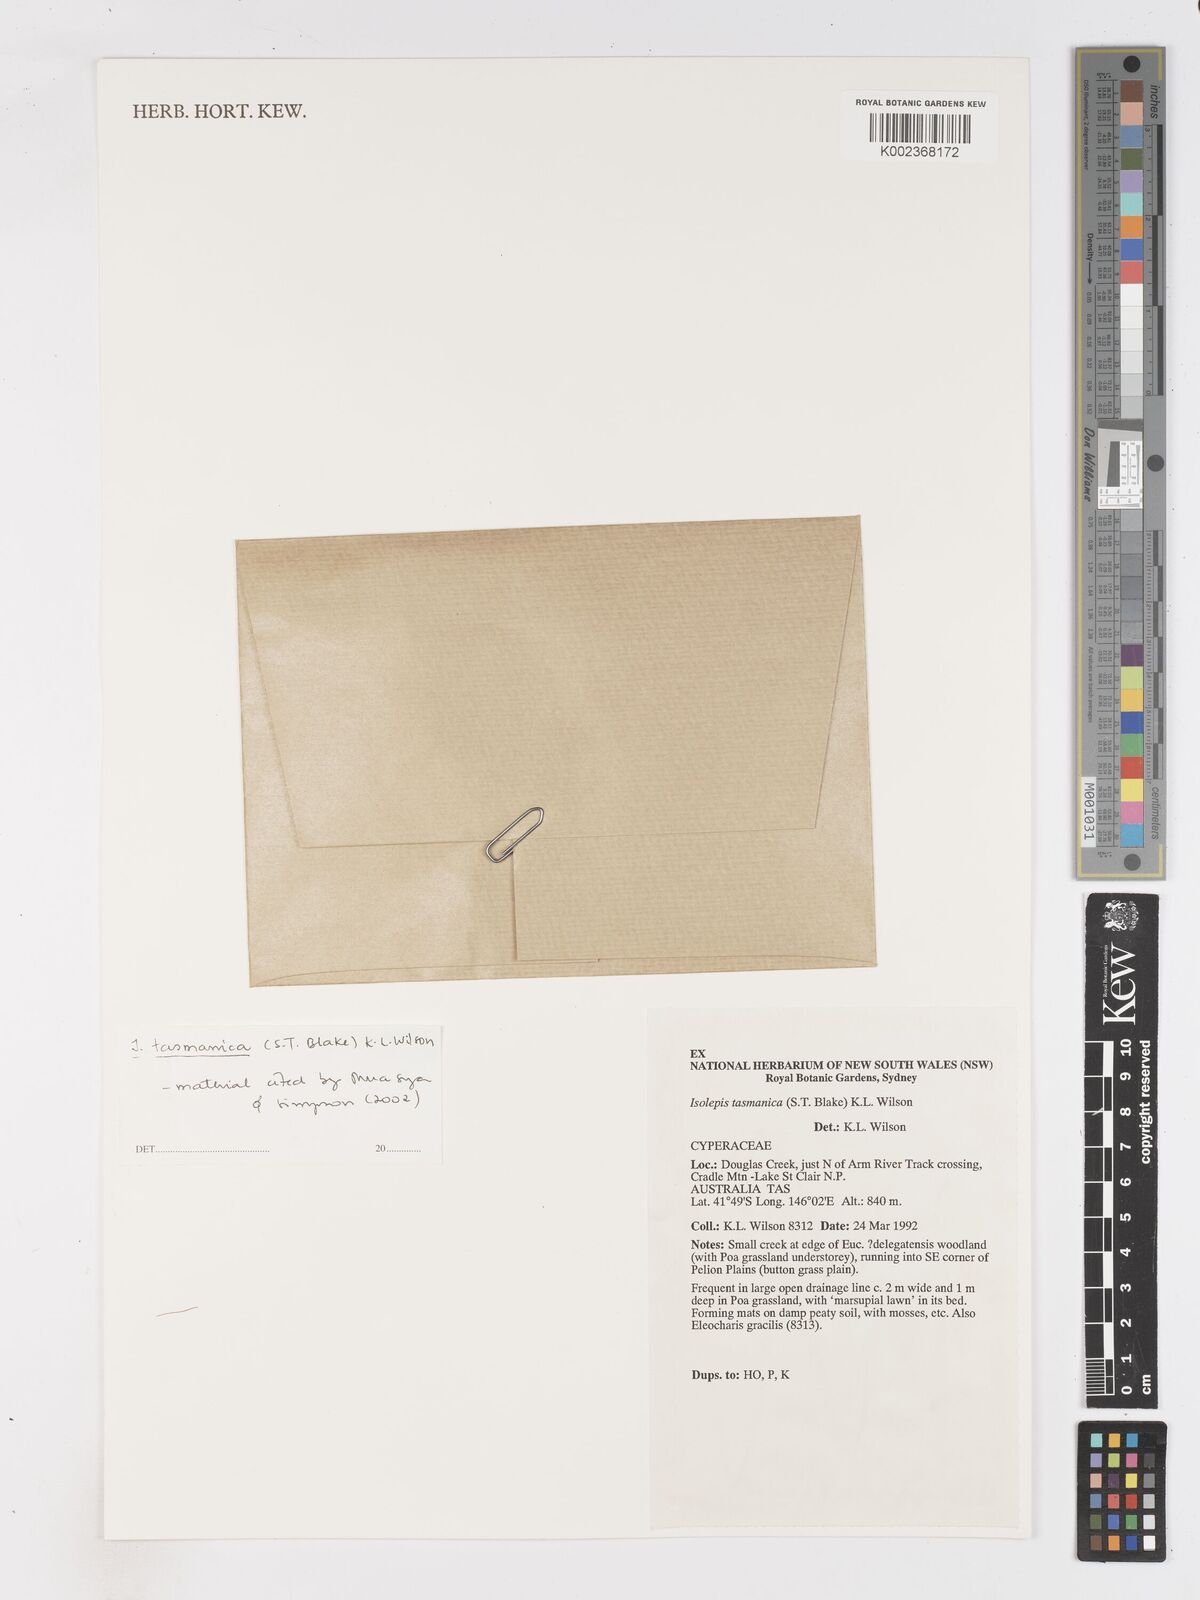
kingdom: Plantae
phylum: Tracheophyta
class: Liliopsida
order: Poales
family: Cyperaceae
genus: Isolepis
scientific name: Isolepis tasmanica
